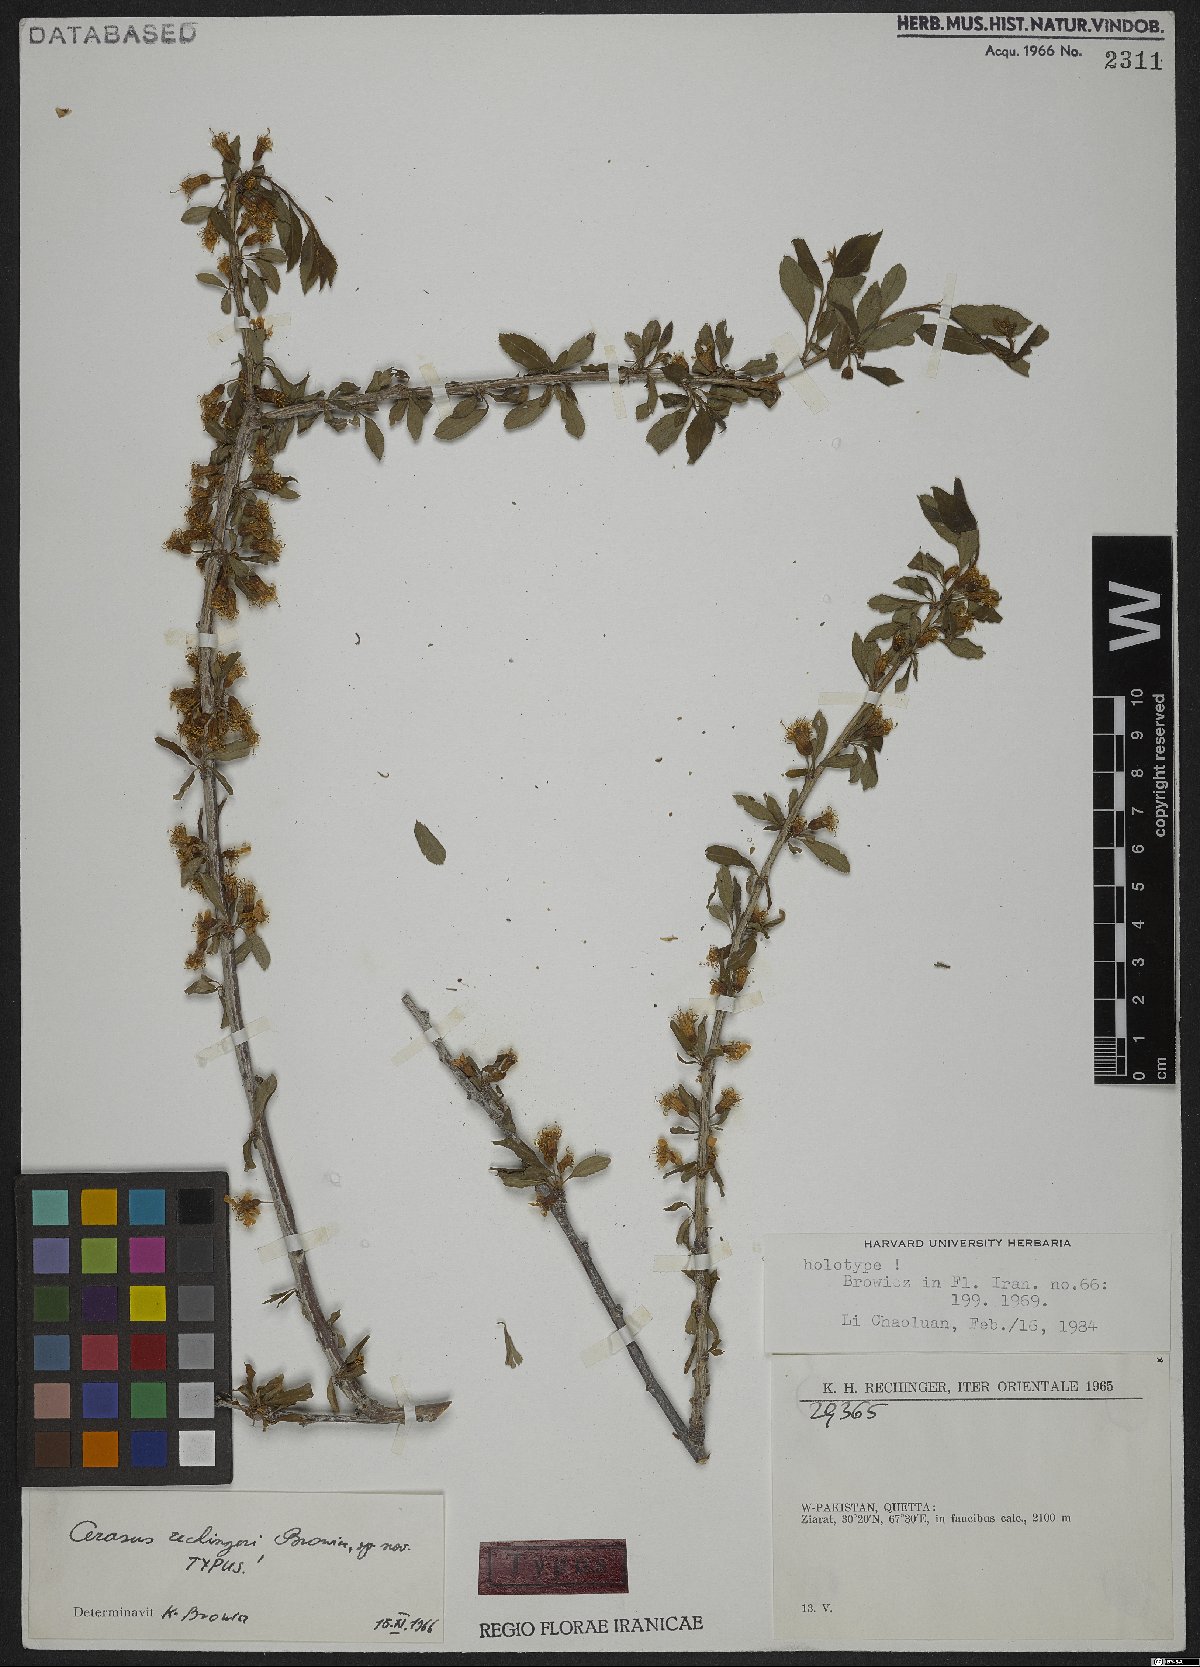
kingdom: Plantae
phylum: Tracheophyta
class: Magnoliopsida
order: Rosales
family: Rosaceae
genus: Prunus
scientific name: Prunus rechingeri
